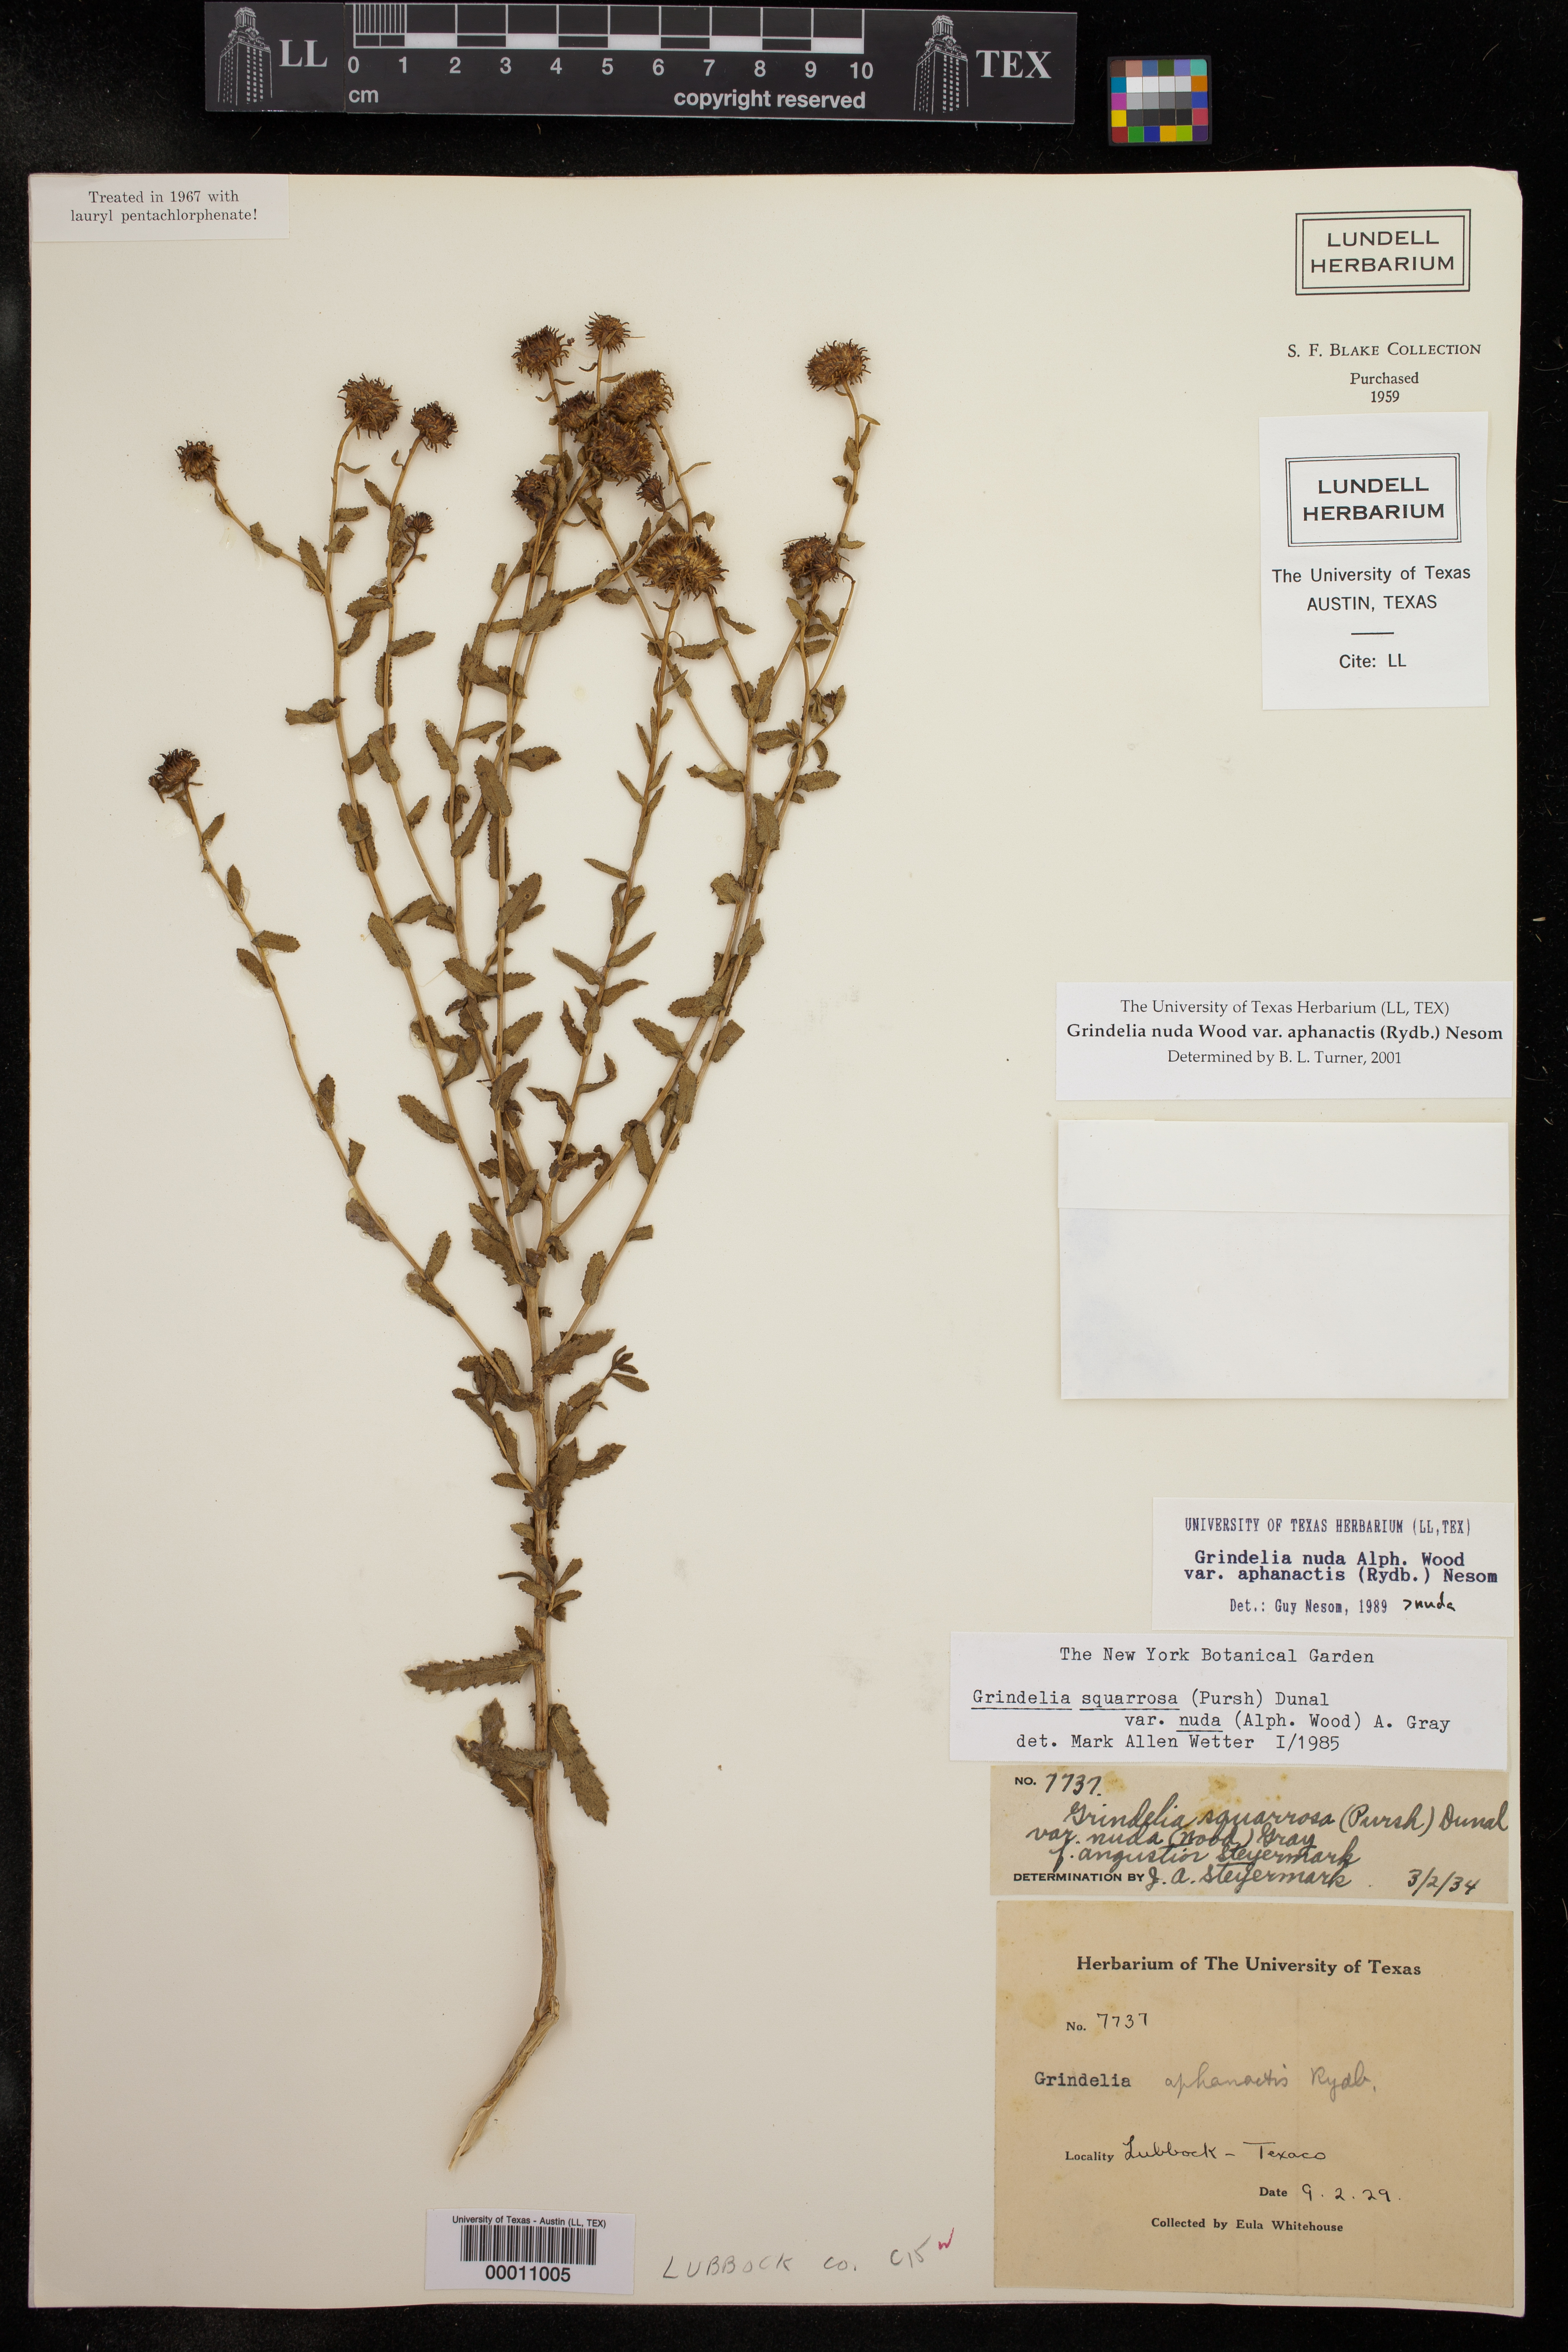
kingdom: Plantae
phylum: Tracheophyta
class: Magnoliopsida
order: Asterales
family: Asteraceae
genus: Grindelia
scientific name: Grindelia nuda
